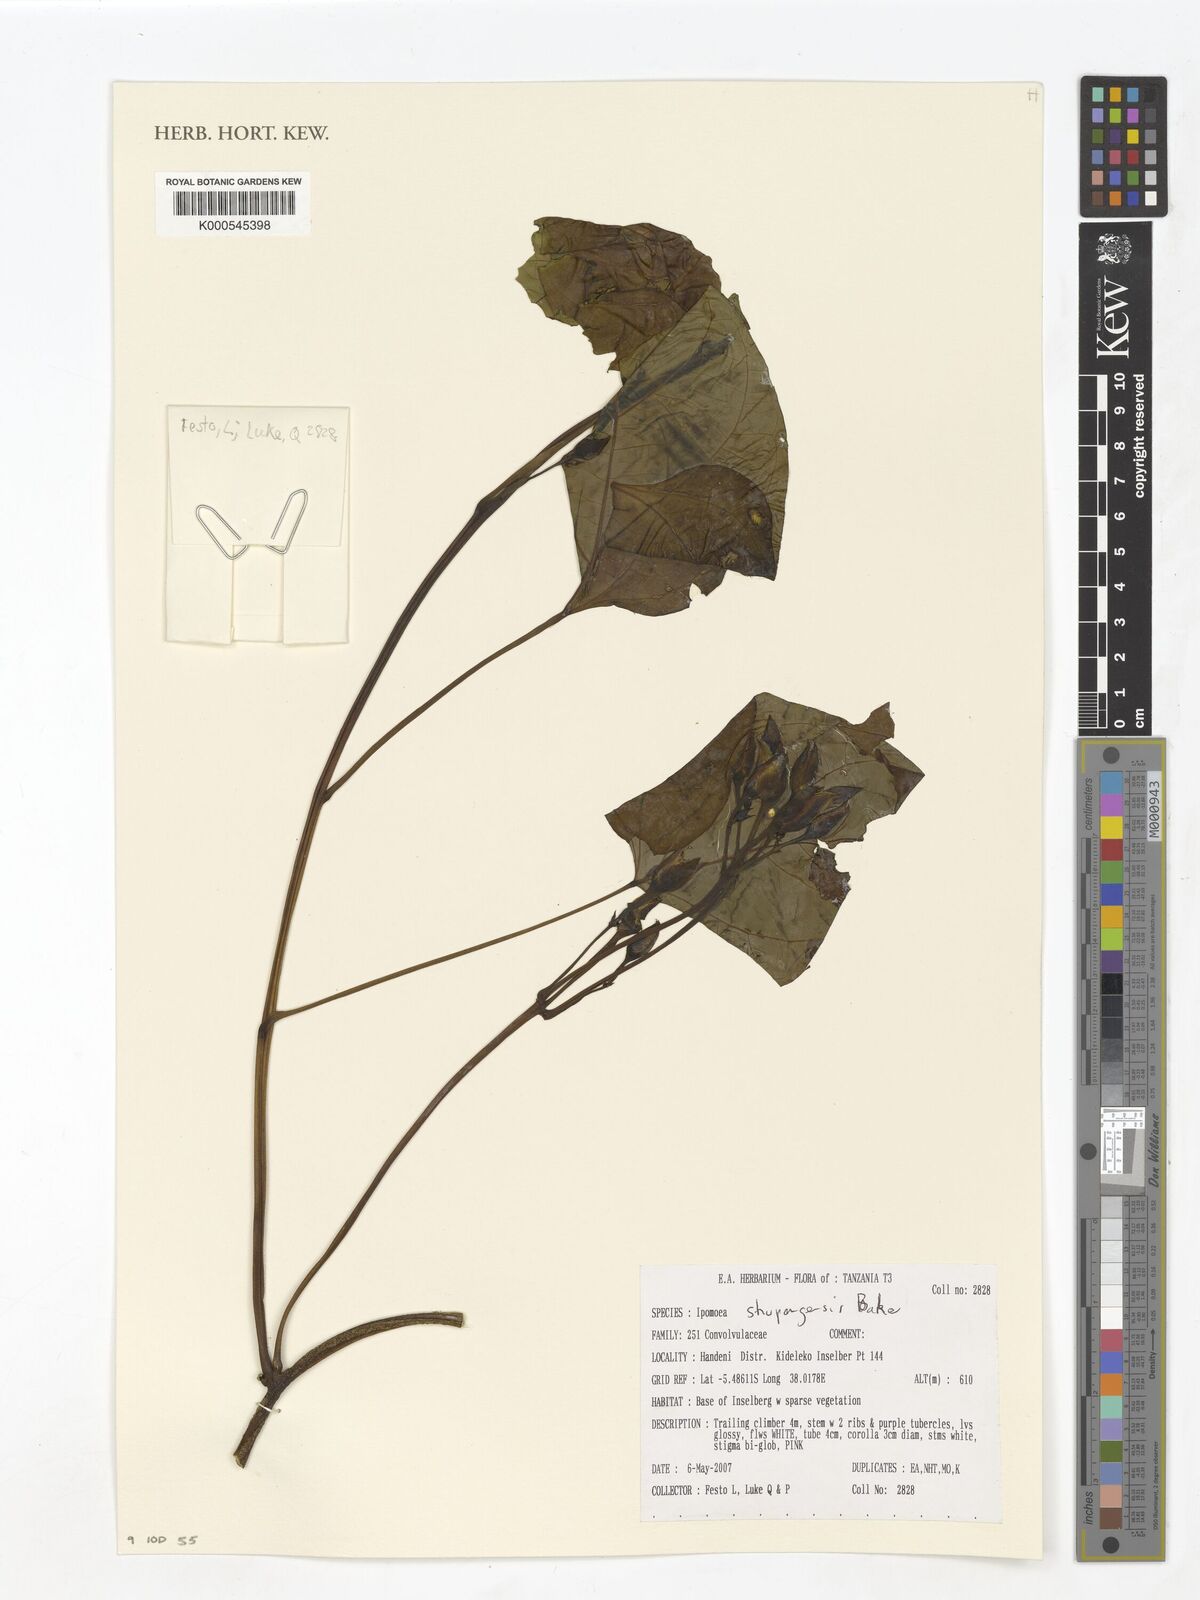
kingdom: Plantae
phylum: Tracheophyta
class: Magnoliopsida
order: Solanales
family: Convolvulaceae
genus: Ipomoea
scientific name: Ipomoea shupangensis
